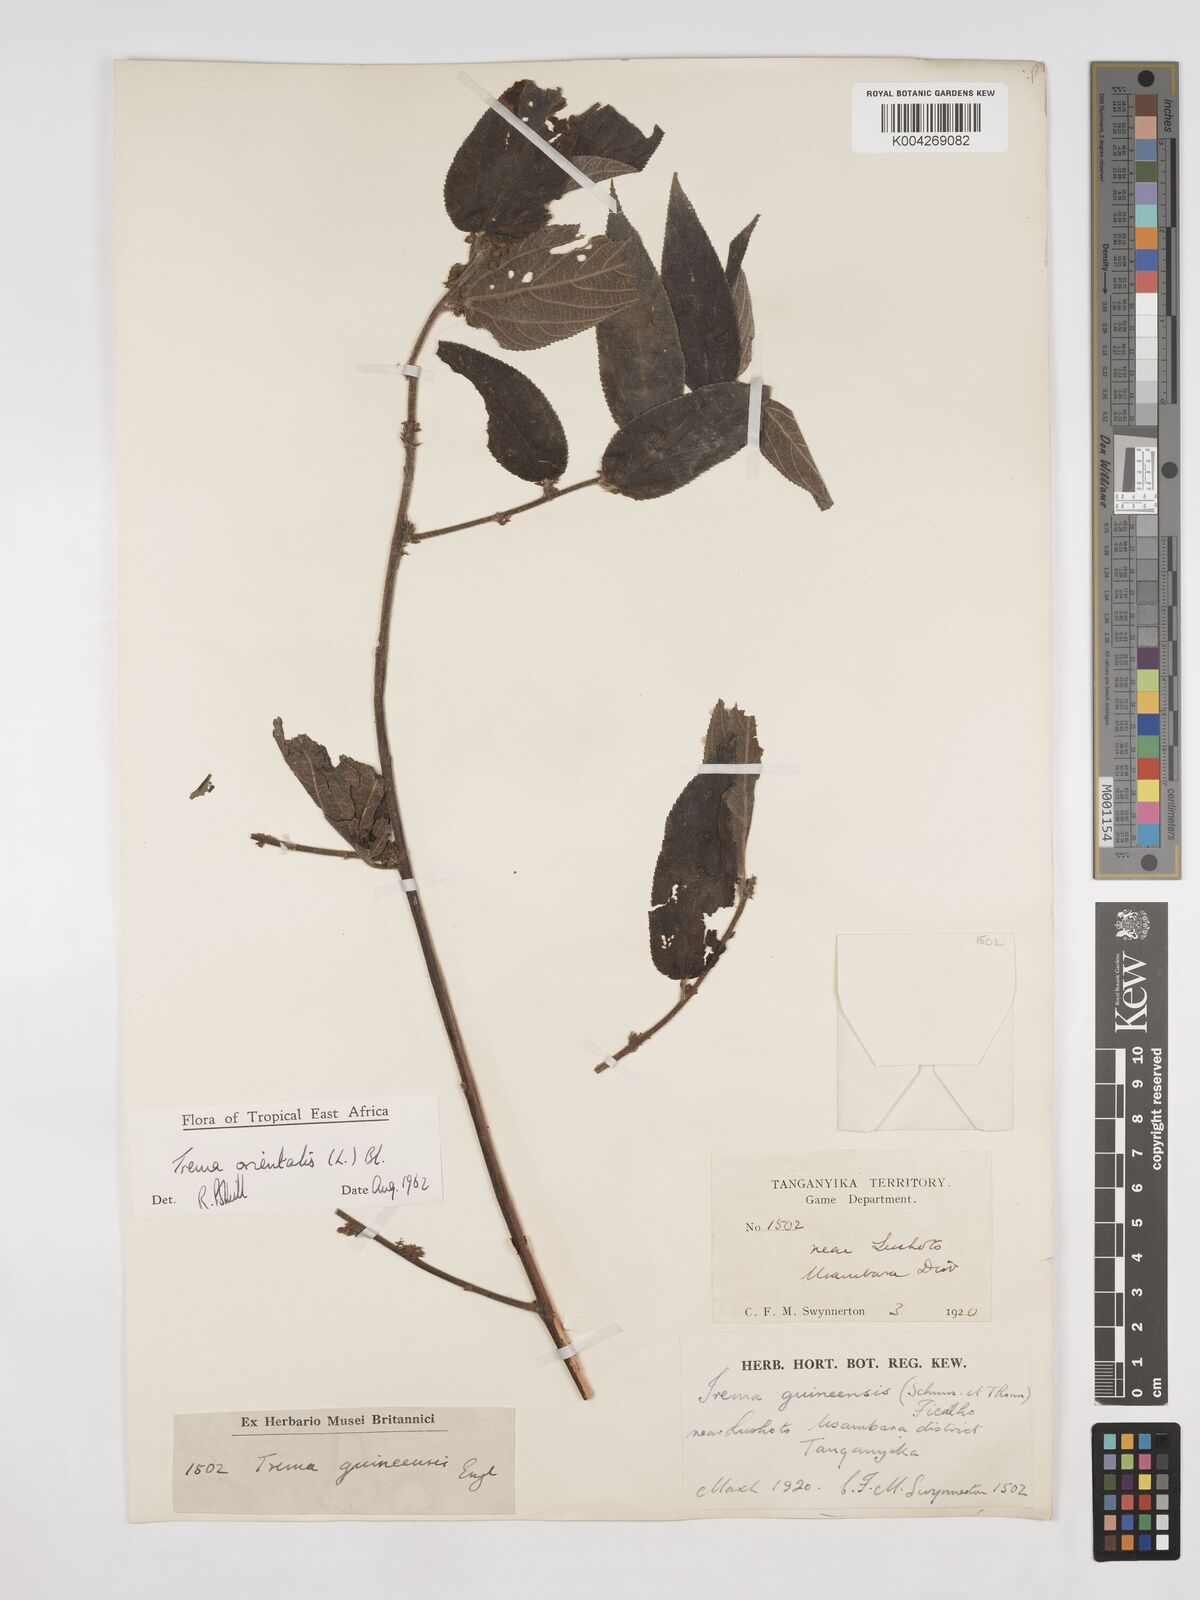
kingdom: Plantae
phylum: Tracheophyta
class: Magnoliopsida
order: Rosales
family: Cannabaceae
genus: Trema
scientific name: Trema orientale
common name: Indian charcoal tree
